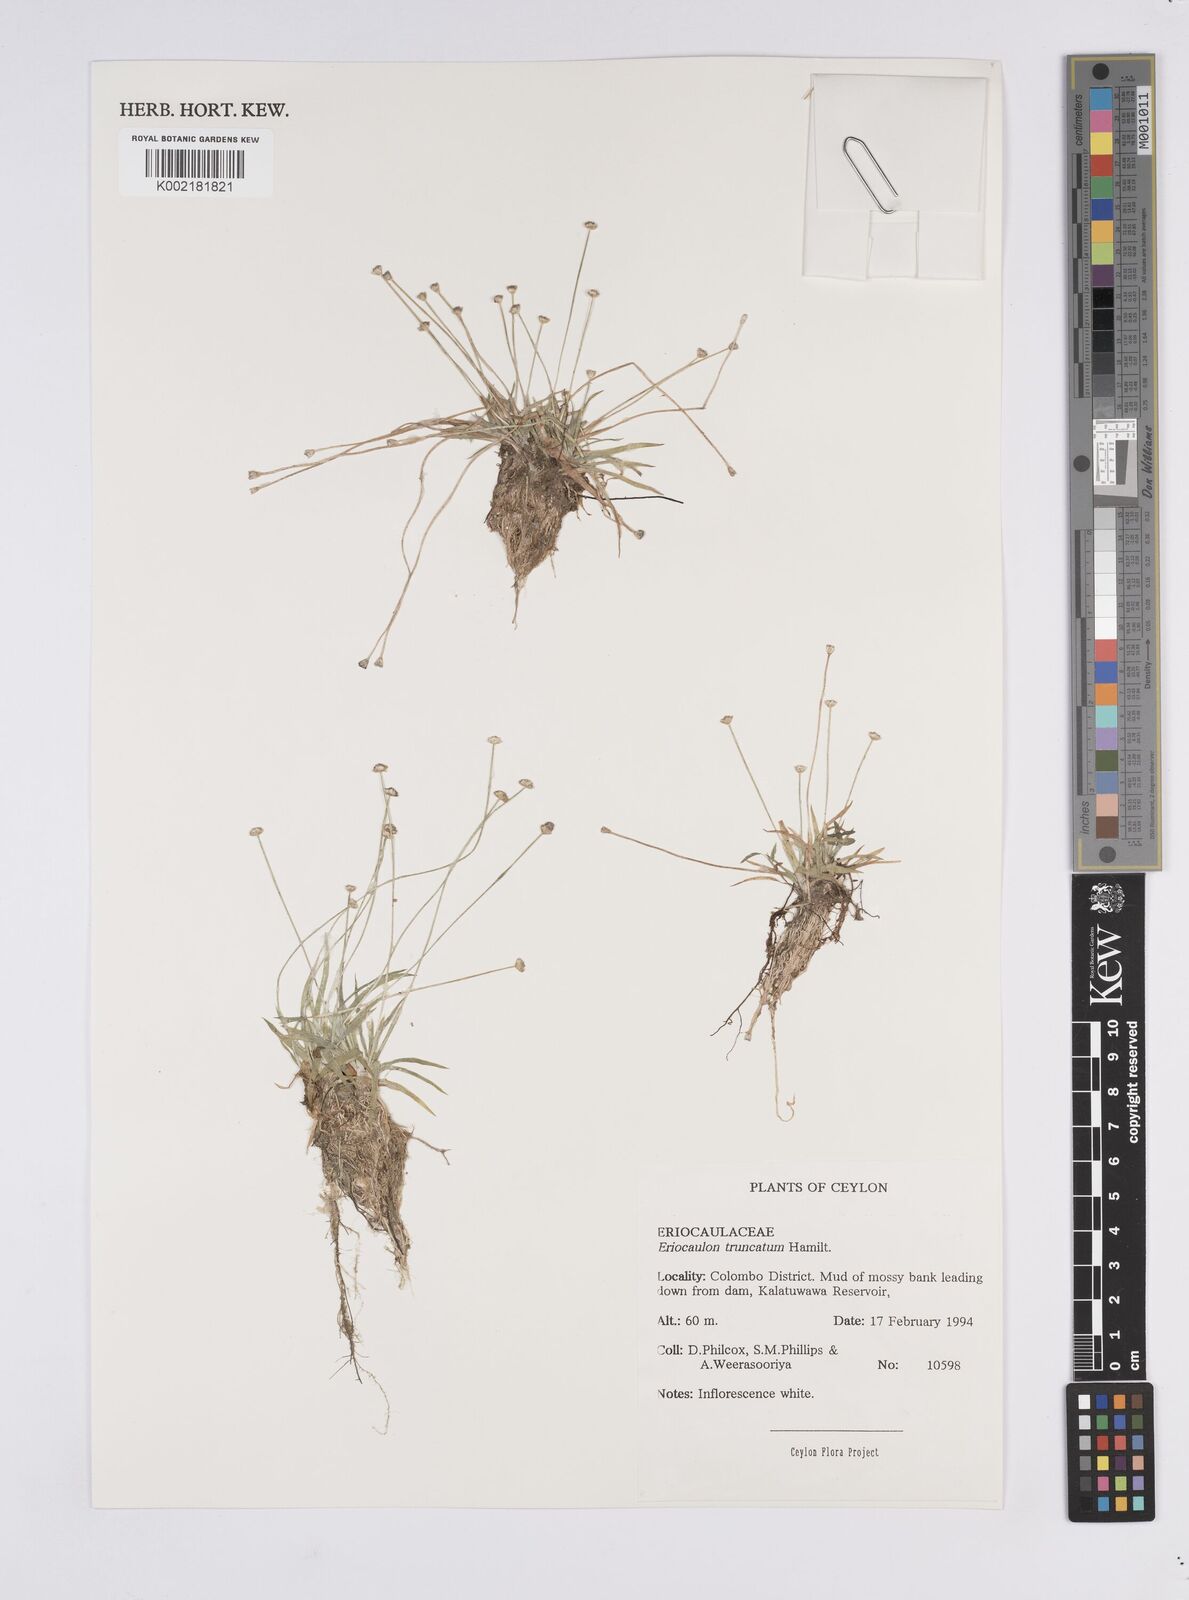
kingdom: Plantae
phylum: Tracheophyta
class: Liliopsida
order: Poales
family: Eriocaulaceae
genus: Eriocaulon
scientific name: Eriocaulon truncatum
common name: Short pipe-wort
